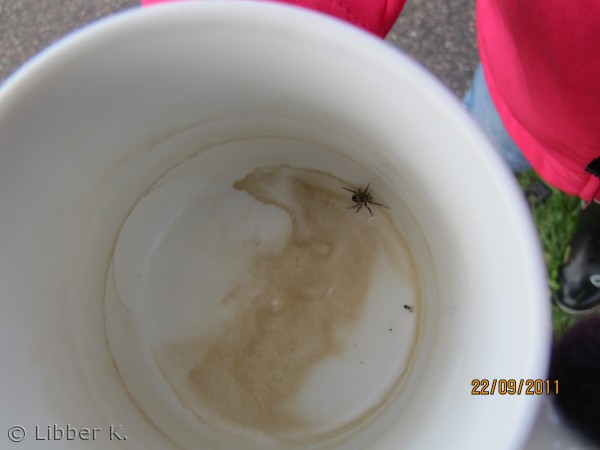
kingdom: Animalia
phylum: Arthropoda
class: Arachnida
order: Araneae
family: Araneidae
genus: Araneus
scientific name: Araneus diadematus
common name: Korsedderkop
